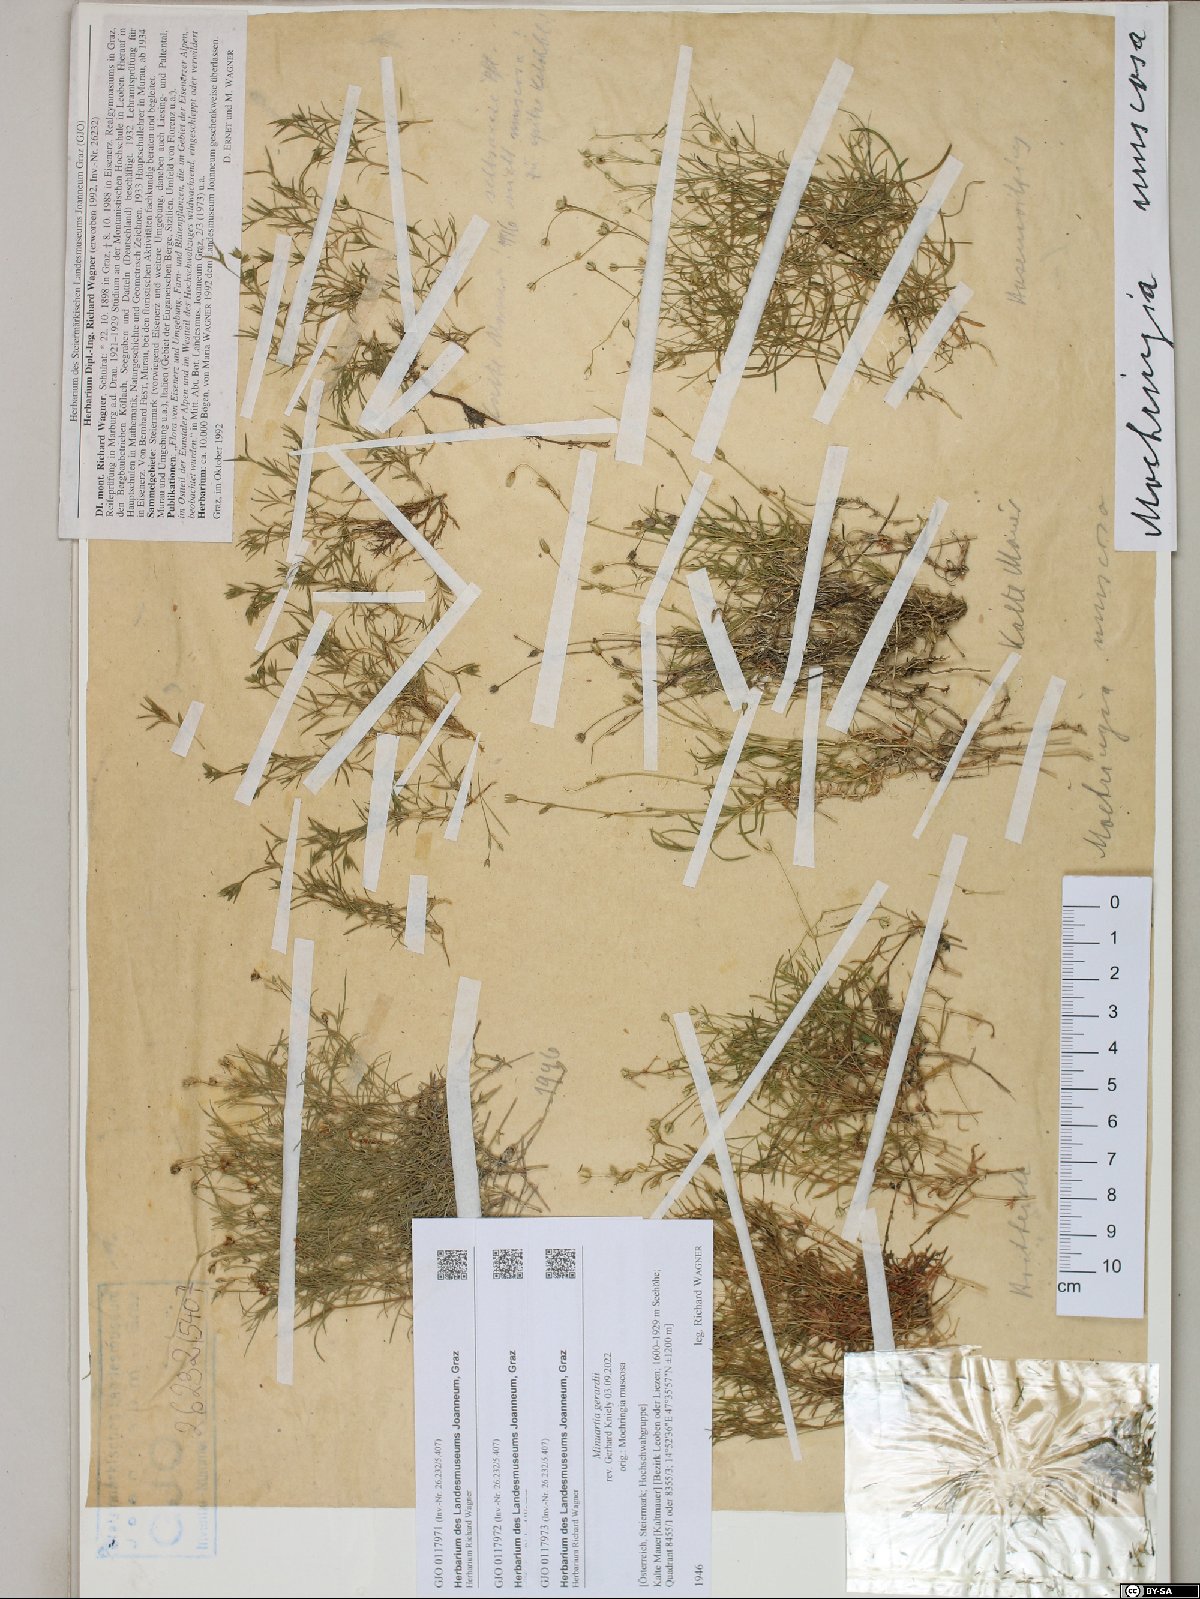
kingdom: Plantae
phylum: Tracheophyta
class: Magnoliopsida
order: Caryophyllales
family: Caryophyllaceae
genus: Sabulina
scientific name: Sabulina verna
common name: Spring sandwort
